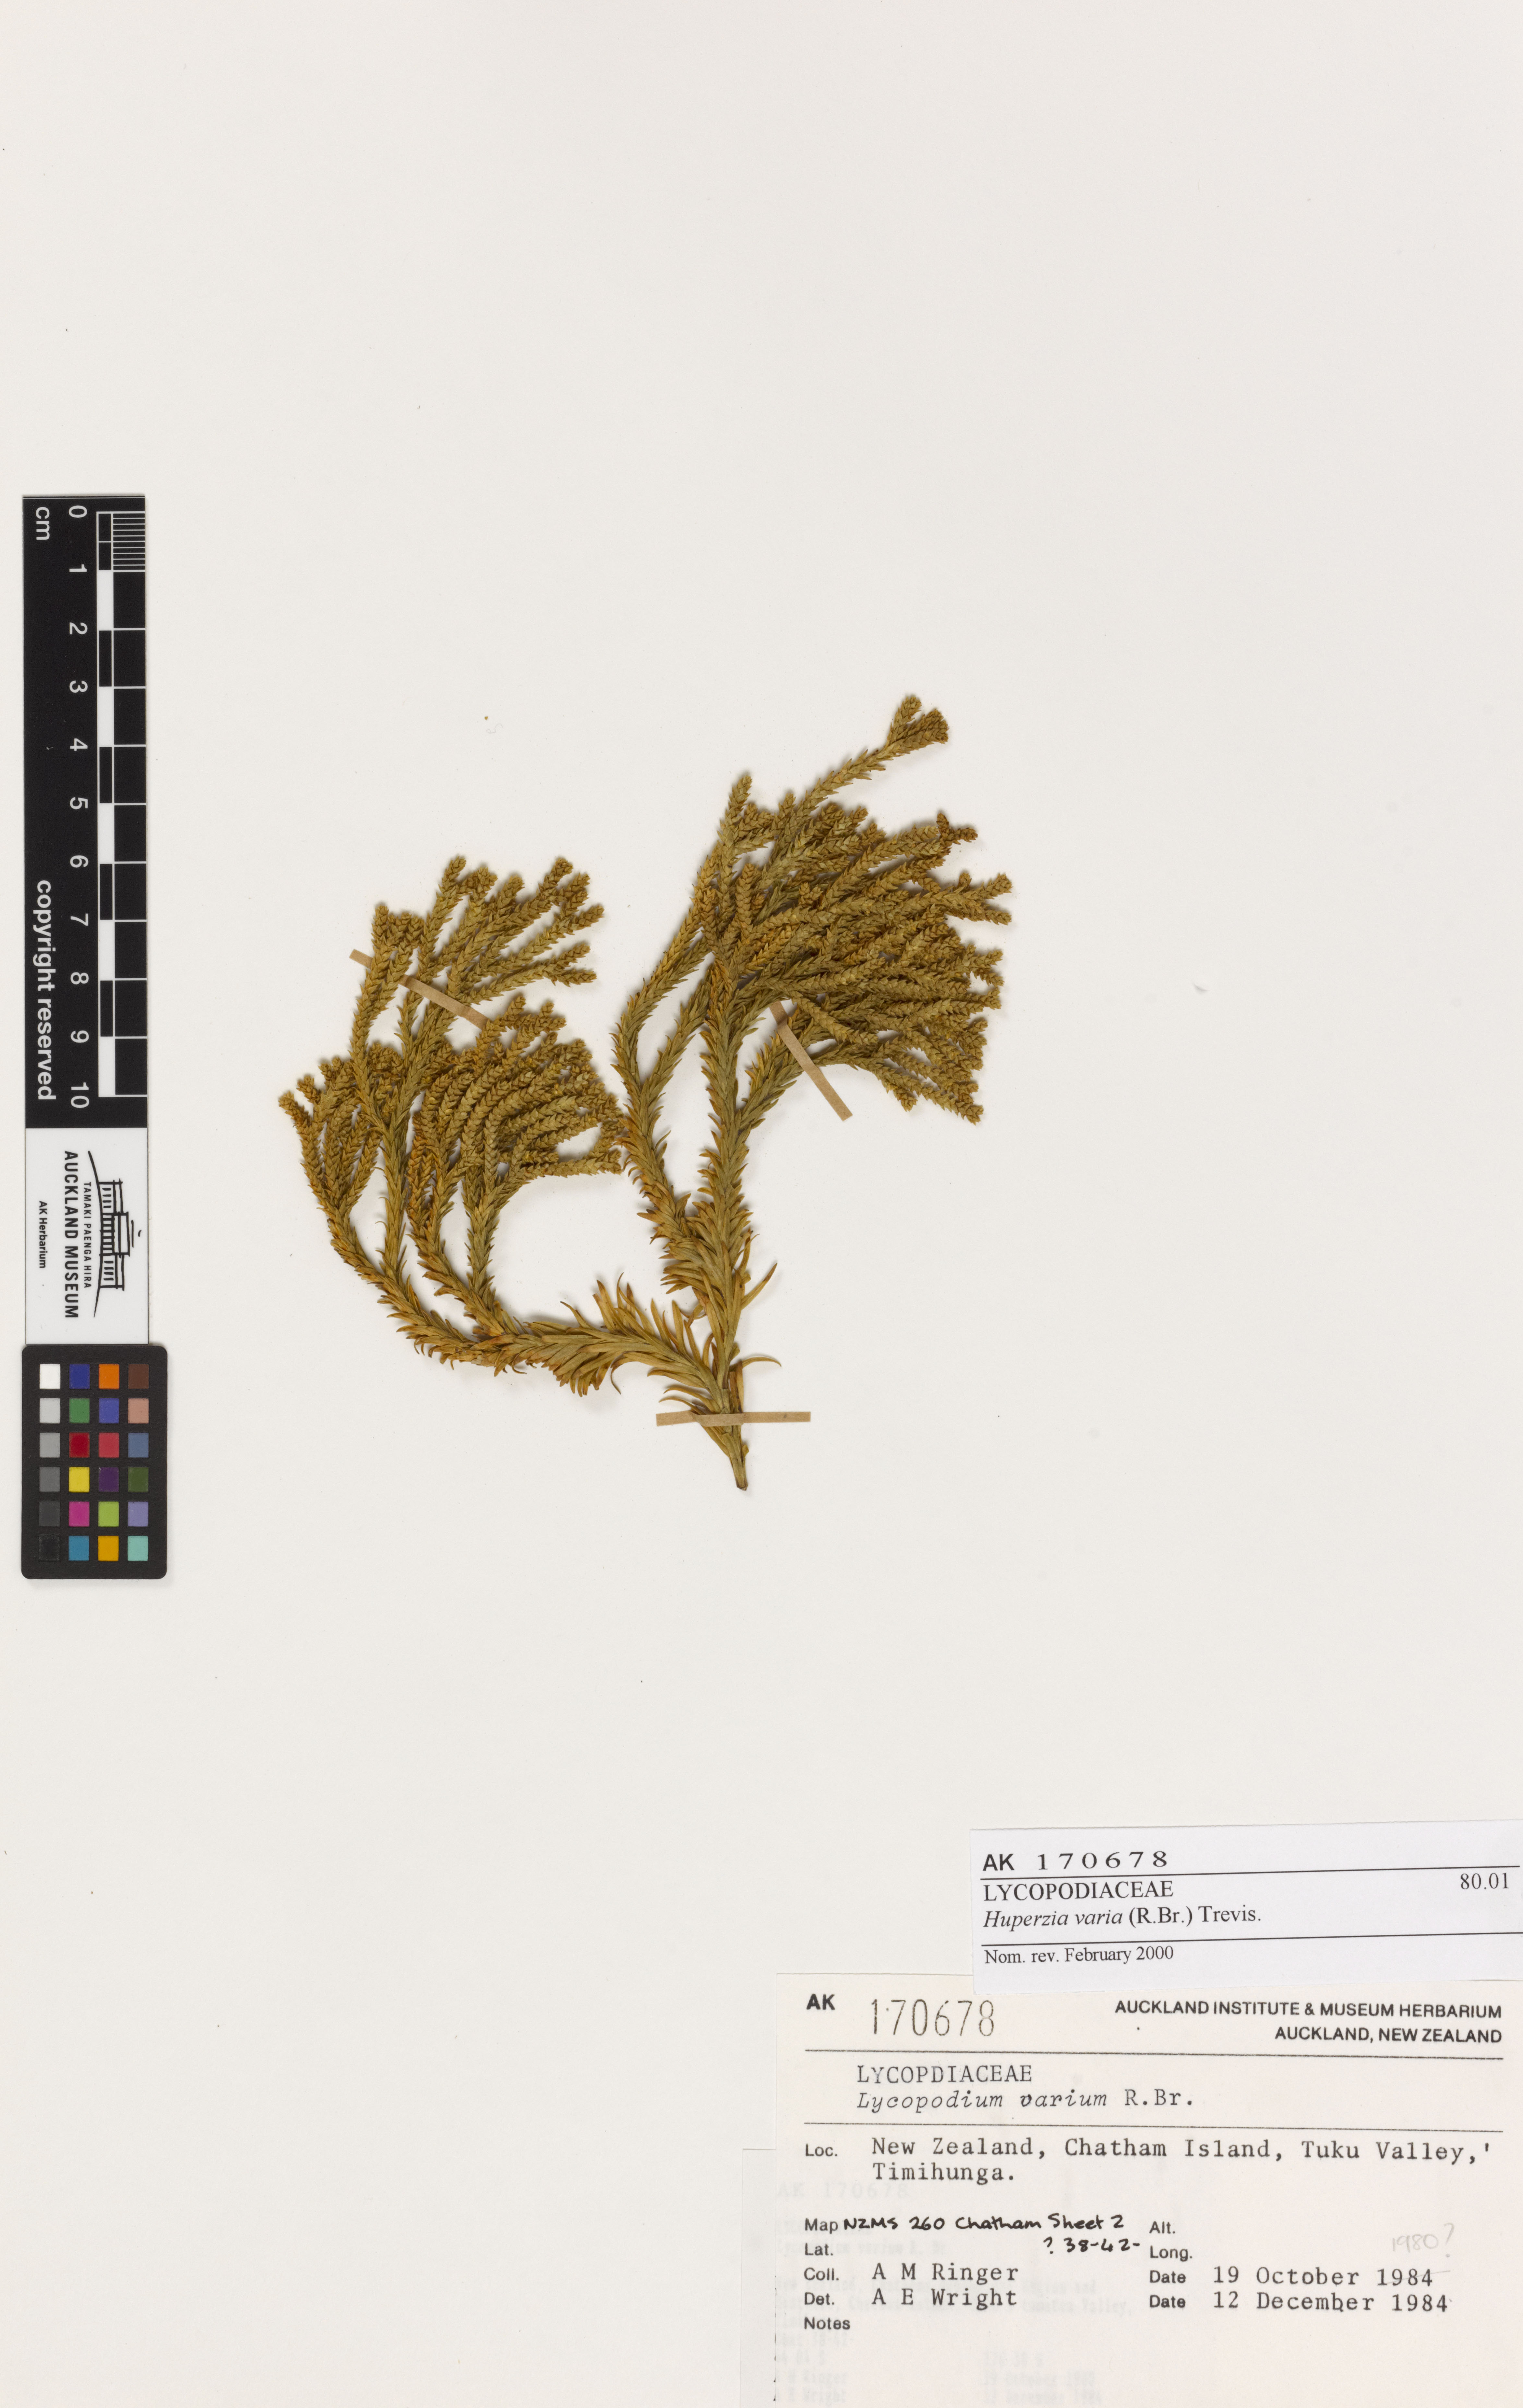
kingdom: Plantae
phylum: Tracheophyta
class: Lycopodiopsida
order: Lycopodiales
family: Lycopodiaceae
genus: Phlegmariurus
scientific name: Phlegmariurus billardierei
